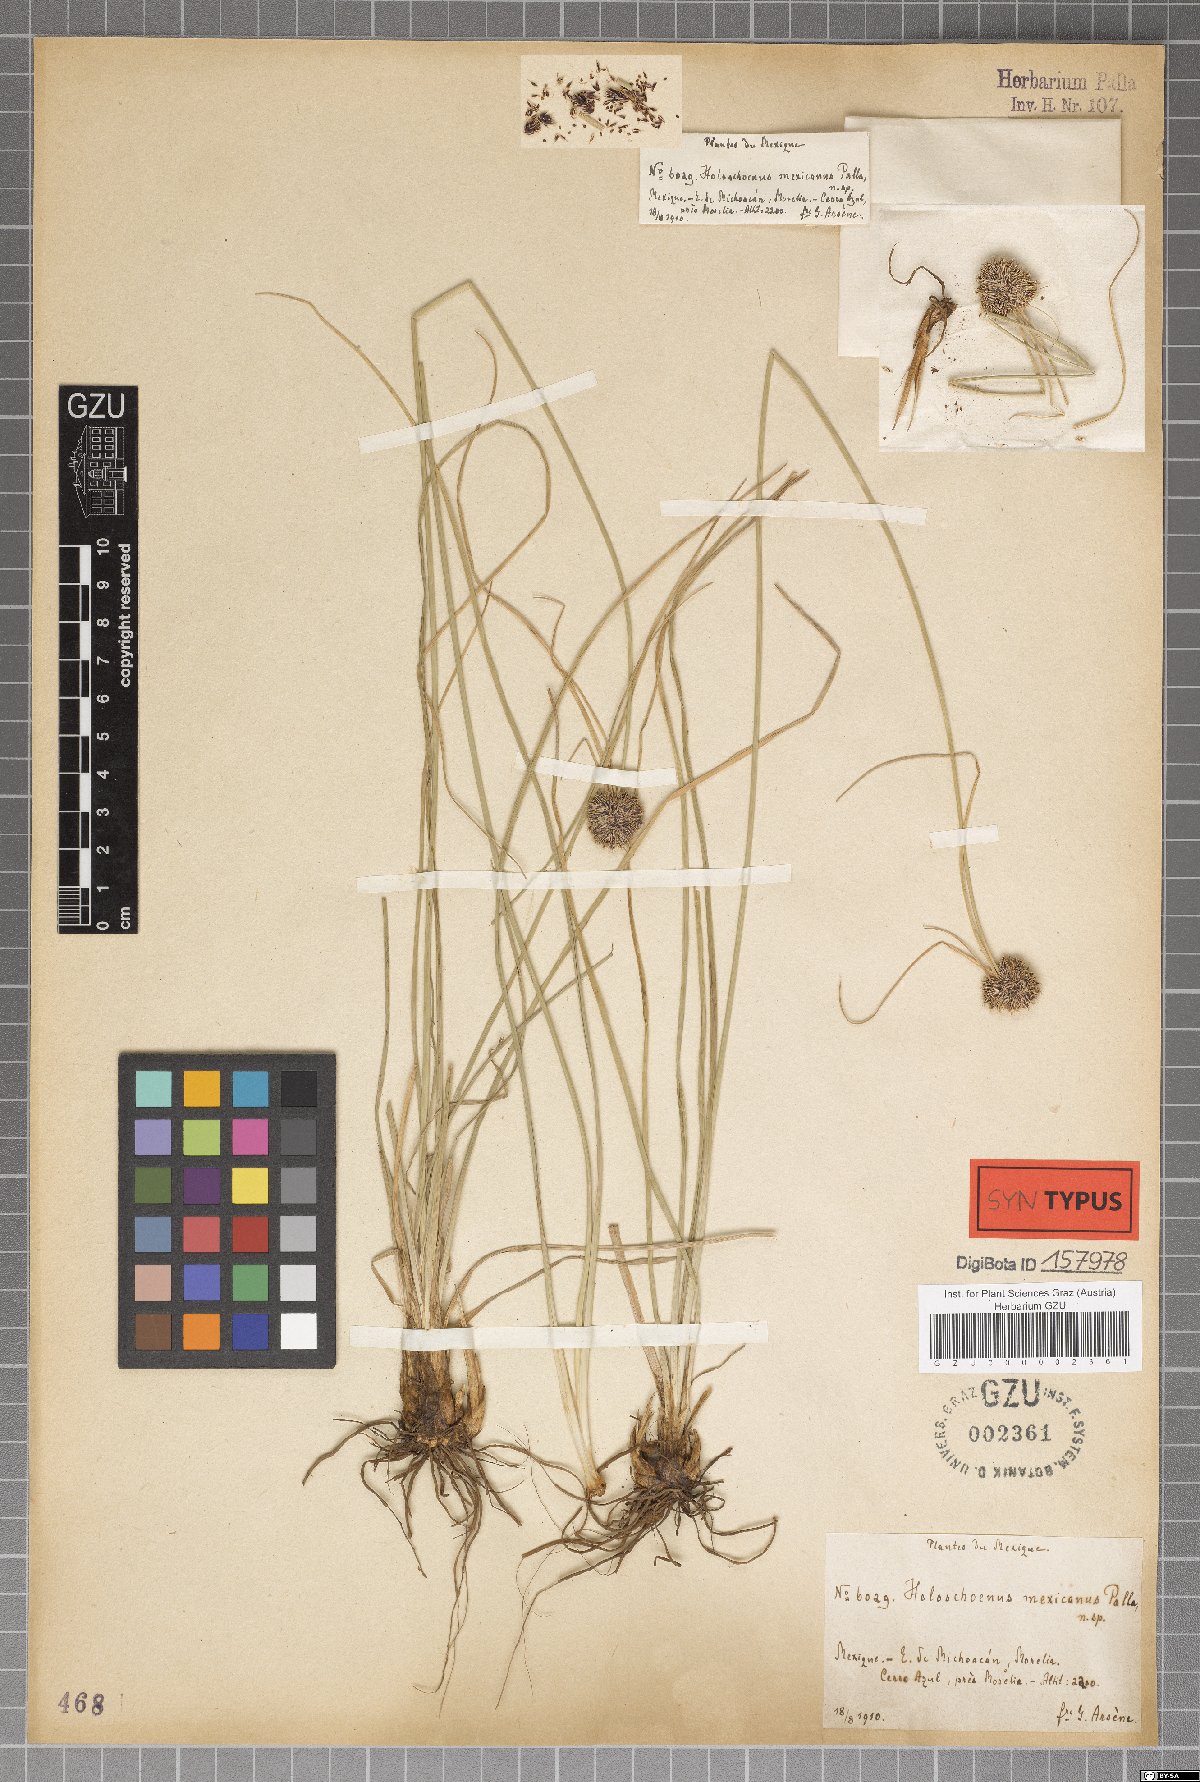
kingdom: Plantae
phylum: Tracheophyta
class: Liliopsida
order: Poales
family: Cyperaceae
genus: Scirpoides
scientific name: Scirpoides mexicana
